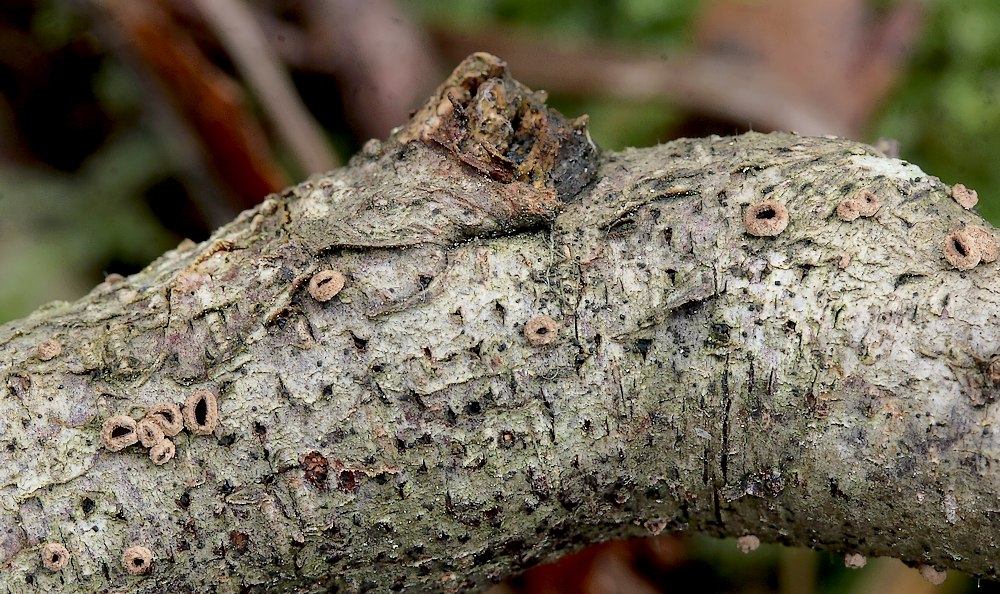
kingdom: Fungi
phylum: Ascomycota
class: Leotiomycetes
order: Helotiales
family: Cenangiaceae
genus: Velutarina
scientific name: Velutarina rufo-olivacea
